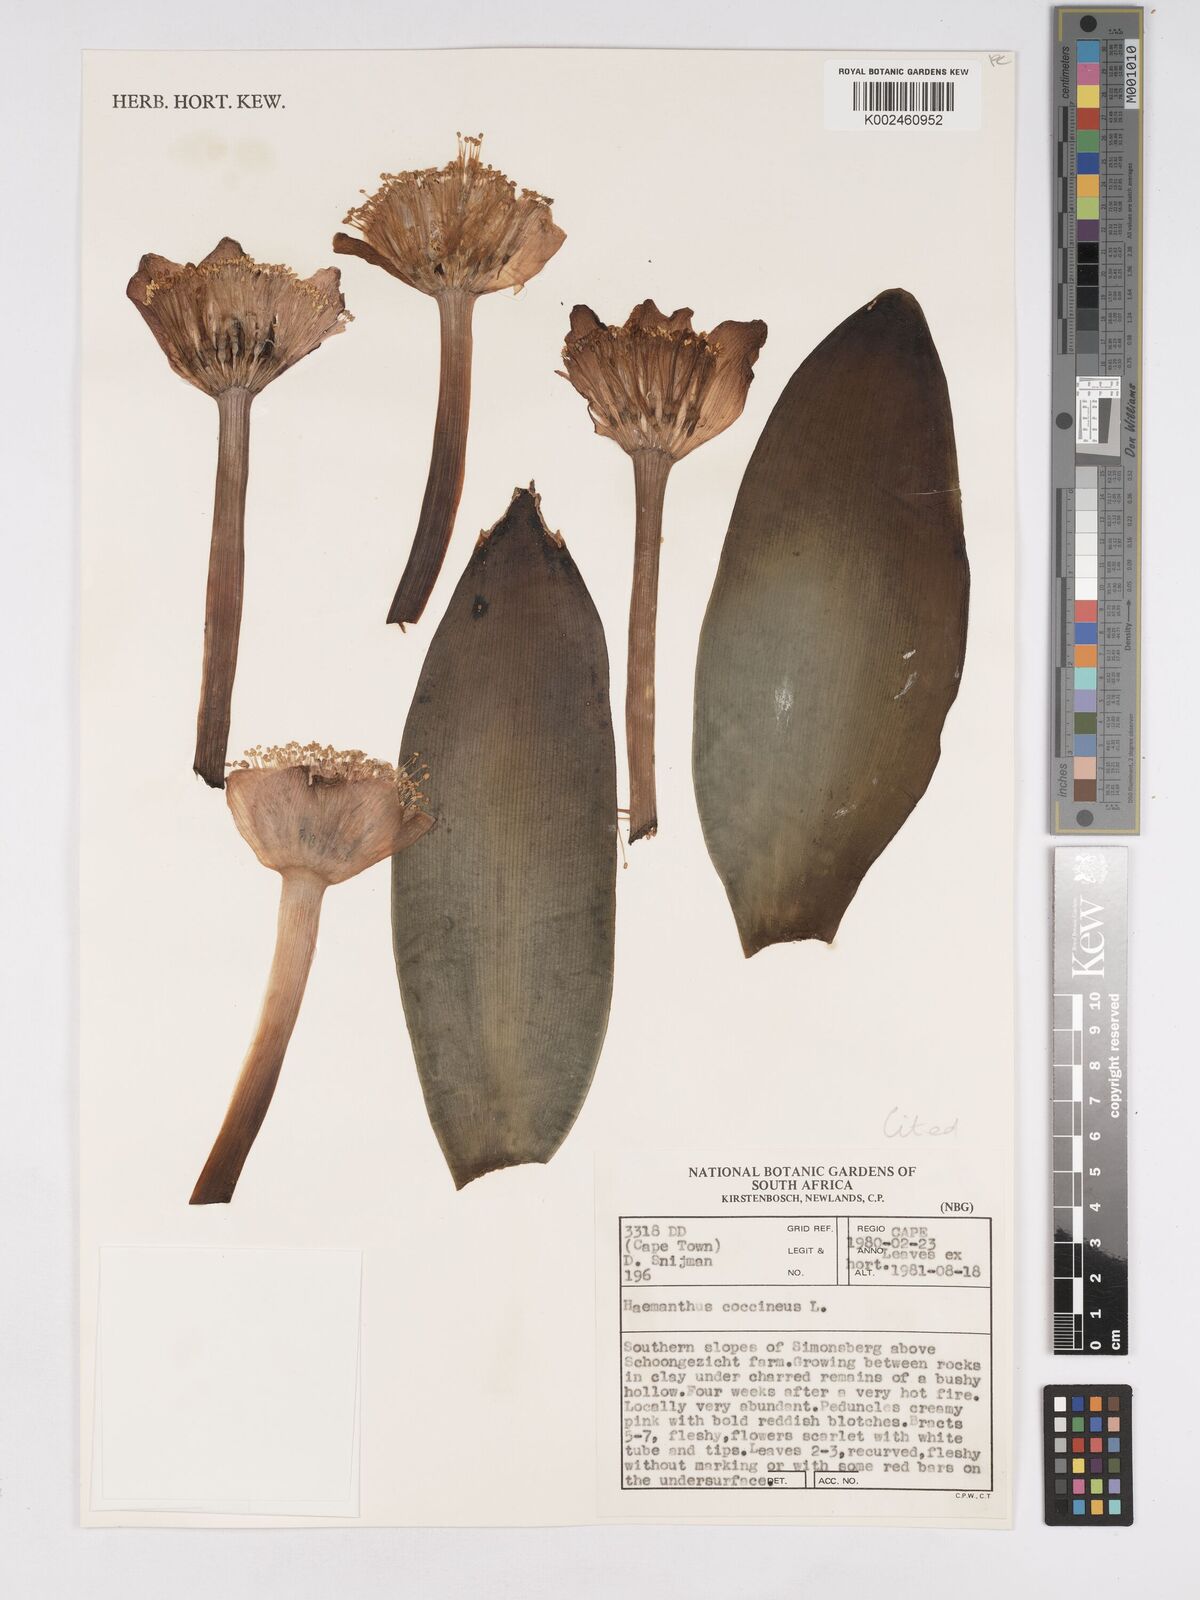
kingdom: Plantae
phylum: Tracheophyta
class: Liliopsida
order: Asparagales
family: Amaryllidaceae
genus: Haemanthus
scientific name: Haemanthus coccineus
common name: Cape-tulip
